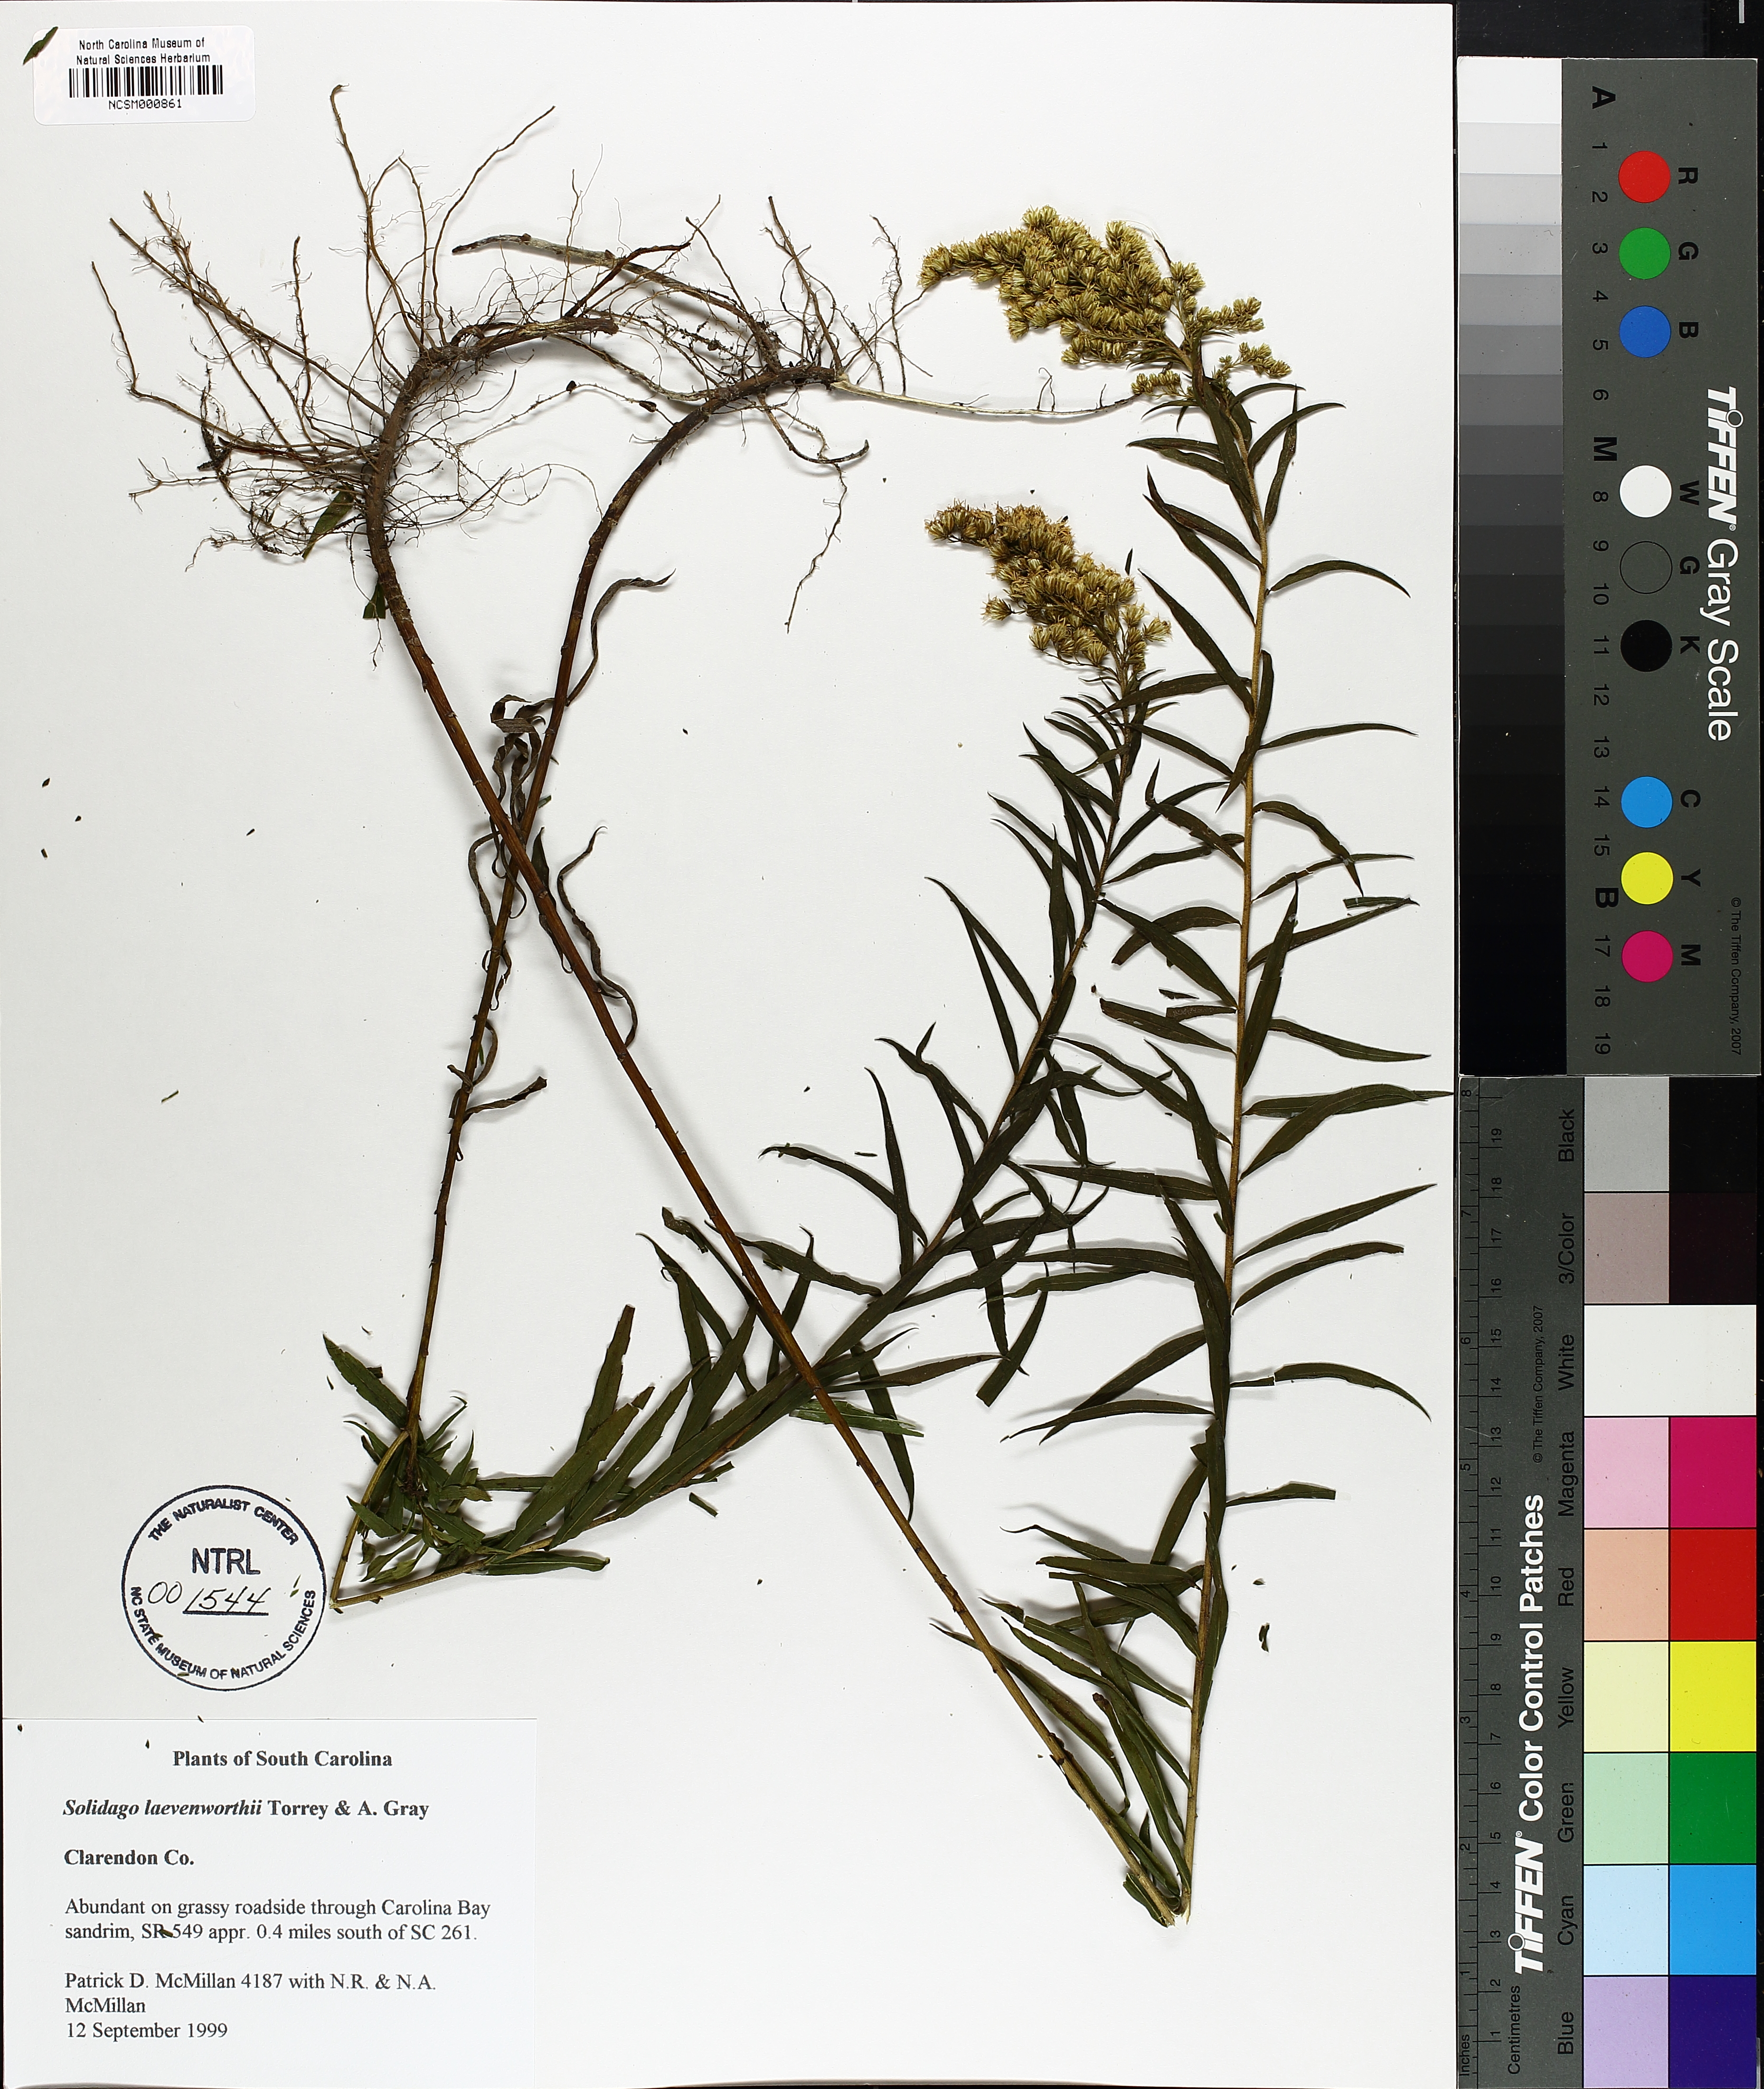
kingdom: Plantae
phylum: Tracheophyta
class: Magnoliopsida
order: Asterales
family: Asteraceae
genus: Solidago
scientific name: Solidago leavenworthii
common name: Leavenworth's goldenrod
